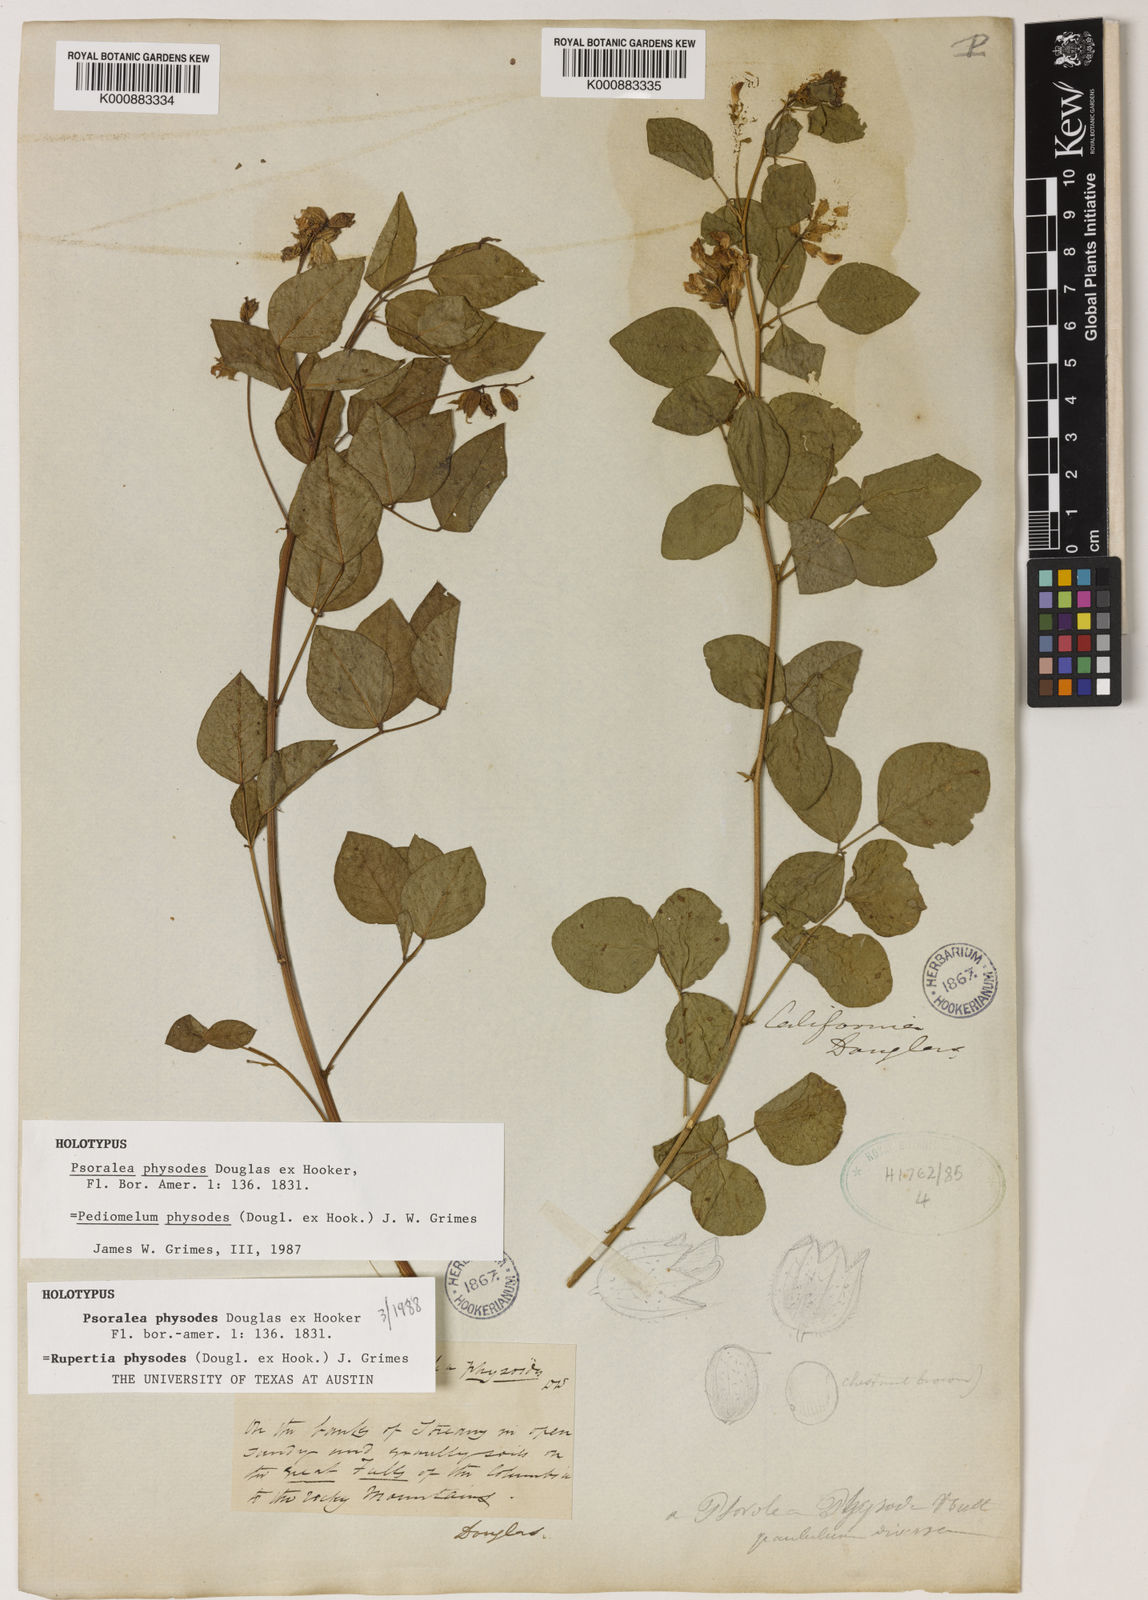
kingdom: Plantae
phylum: Tracheophyta
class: Magnoliopsida
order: Fabales
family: Fabaceae
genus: Rupertia
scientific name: Rupertia physodes
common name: California-tea
